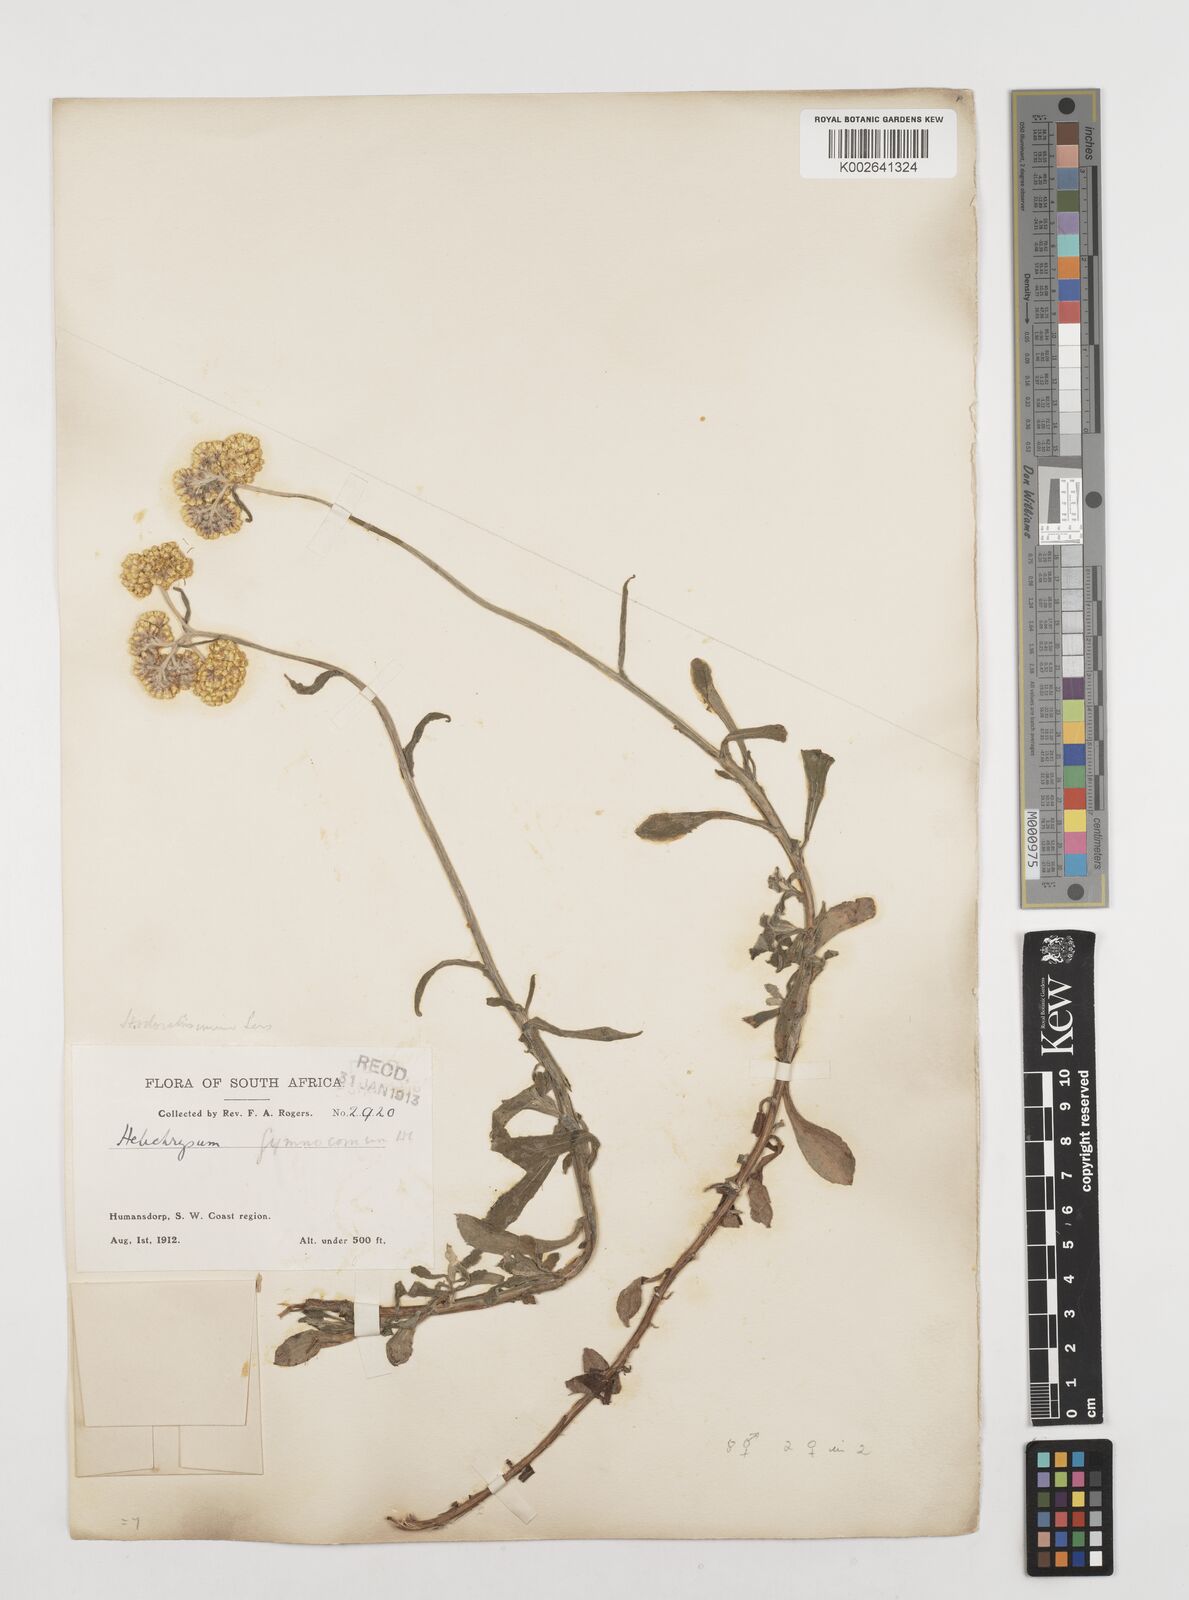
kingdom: Plantae
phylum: Tracheophyta
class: Magnoliopsida
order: Asterales
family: Asteraceae
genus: Helichrysum
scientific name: Helichrysum odoratissimum
